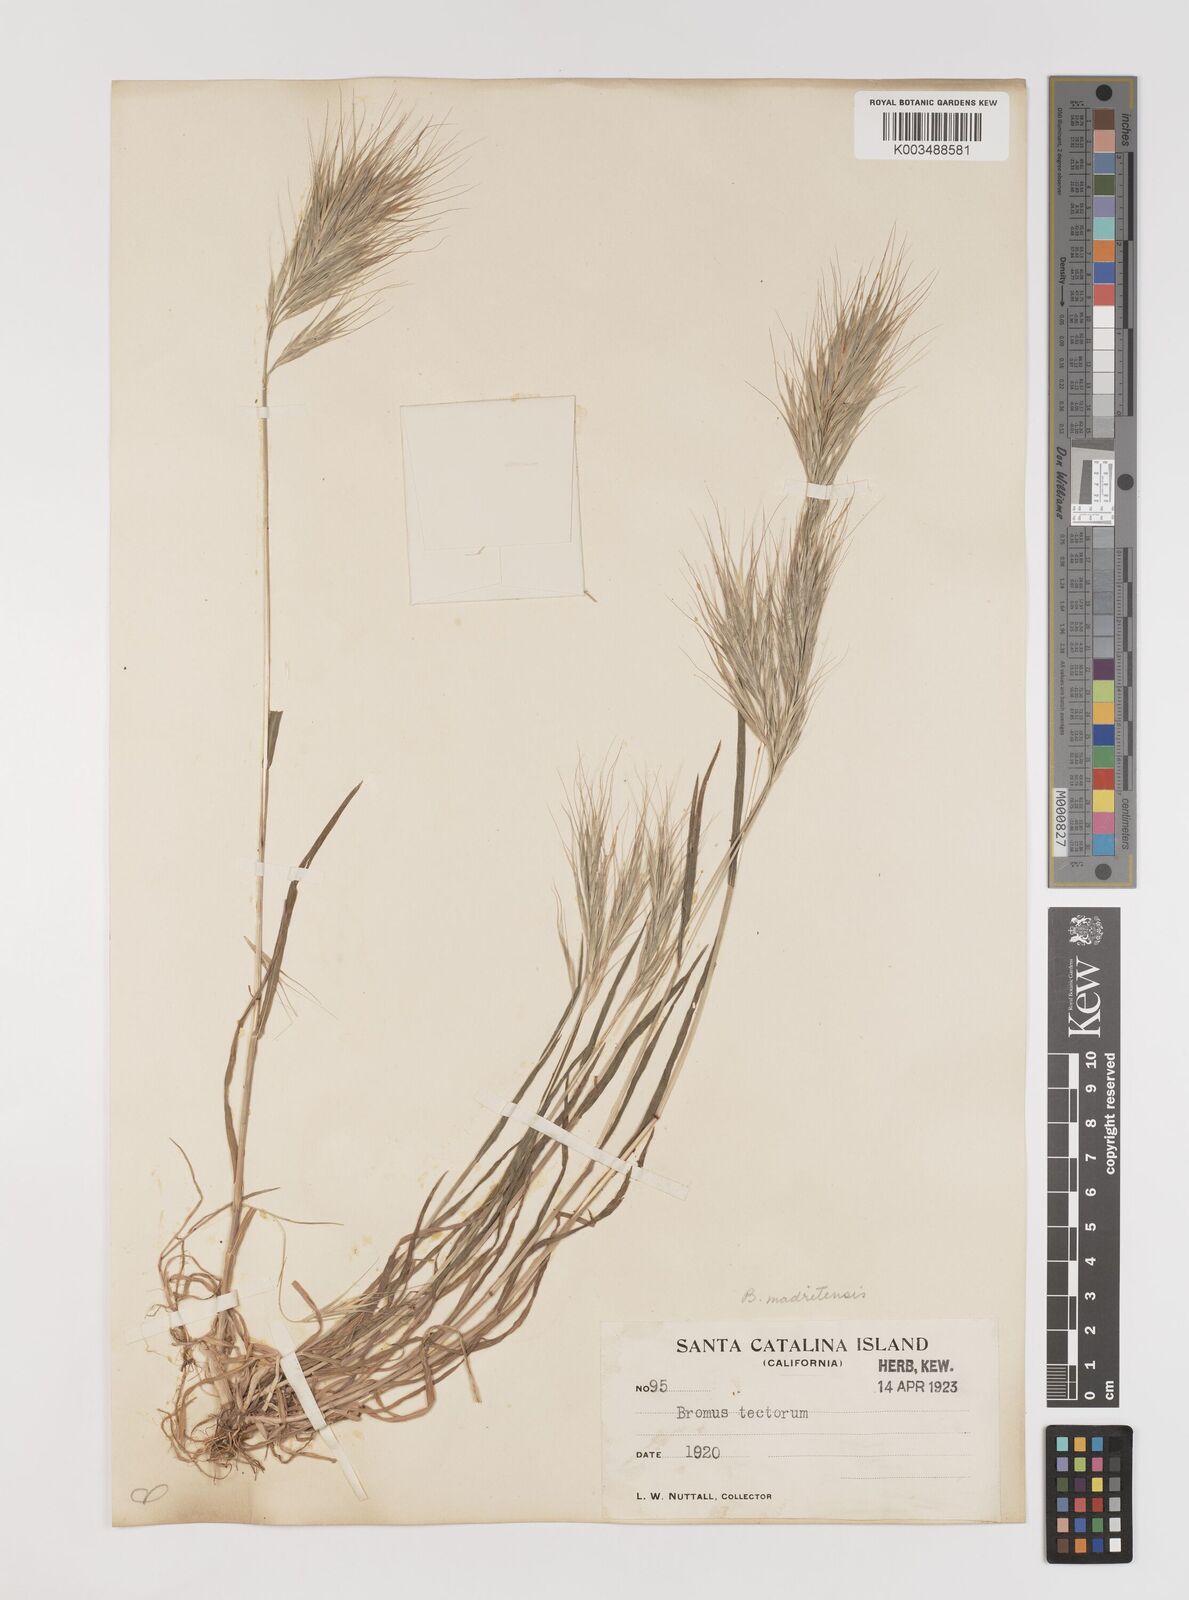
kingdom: Plantae
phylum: Tracheophyta
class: Liliopsida
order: Poales
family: Poaceae
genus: Bromus
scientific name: Bromus madritensis
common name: Compact brome
